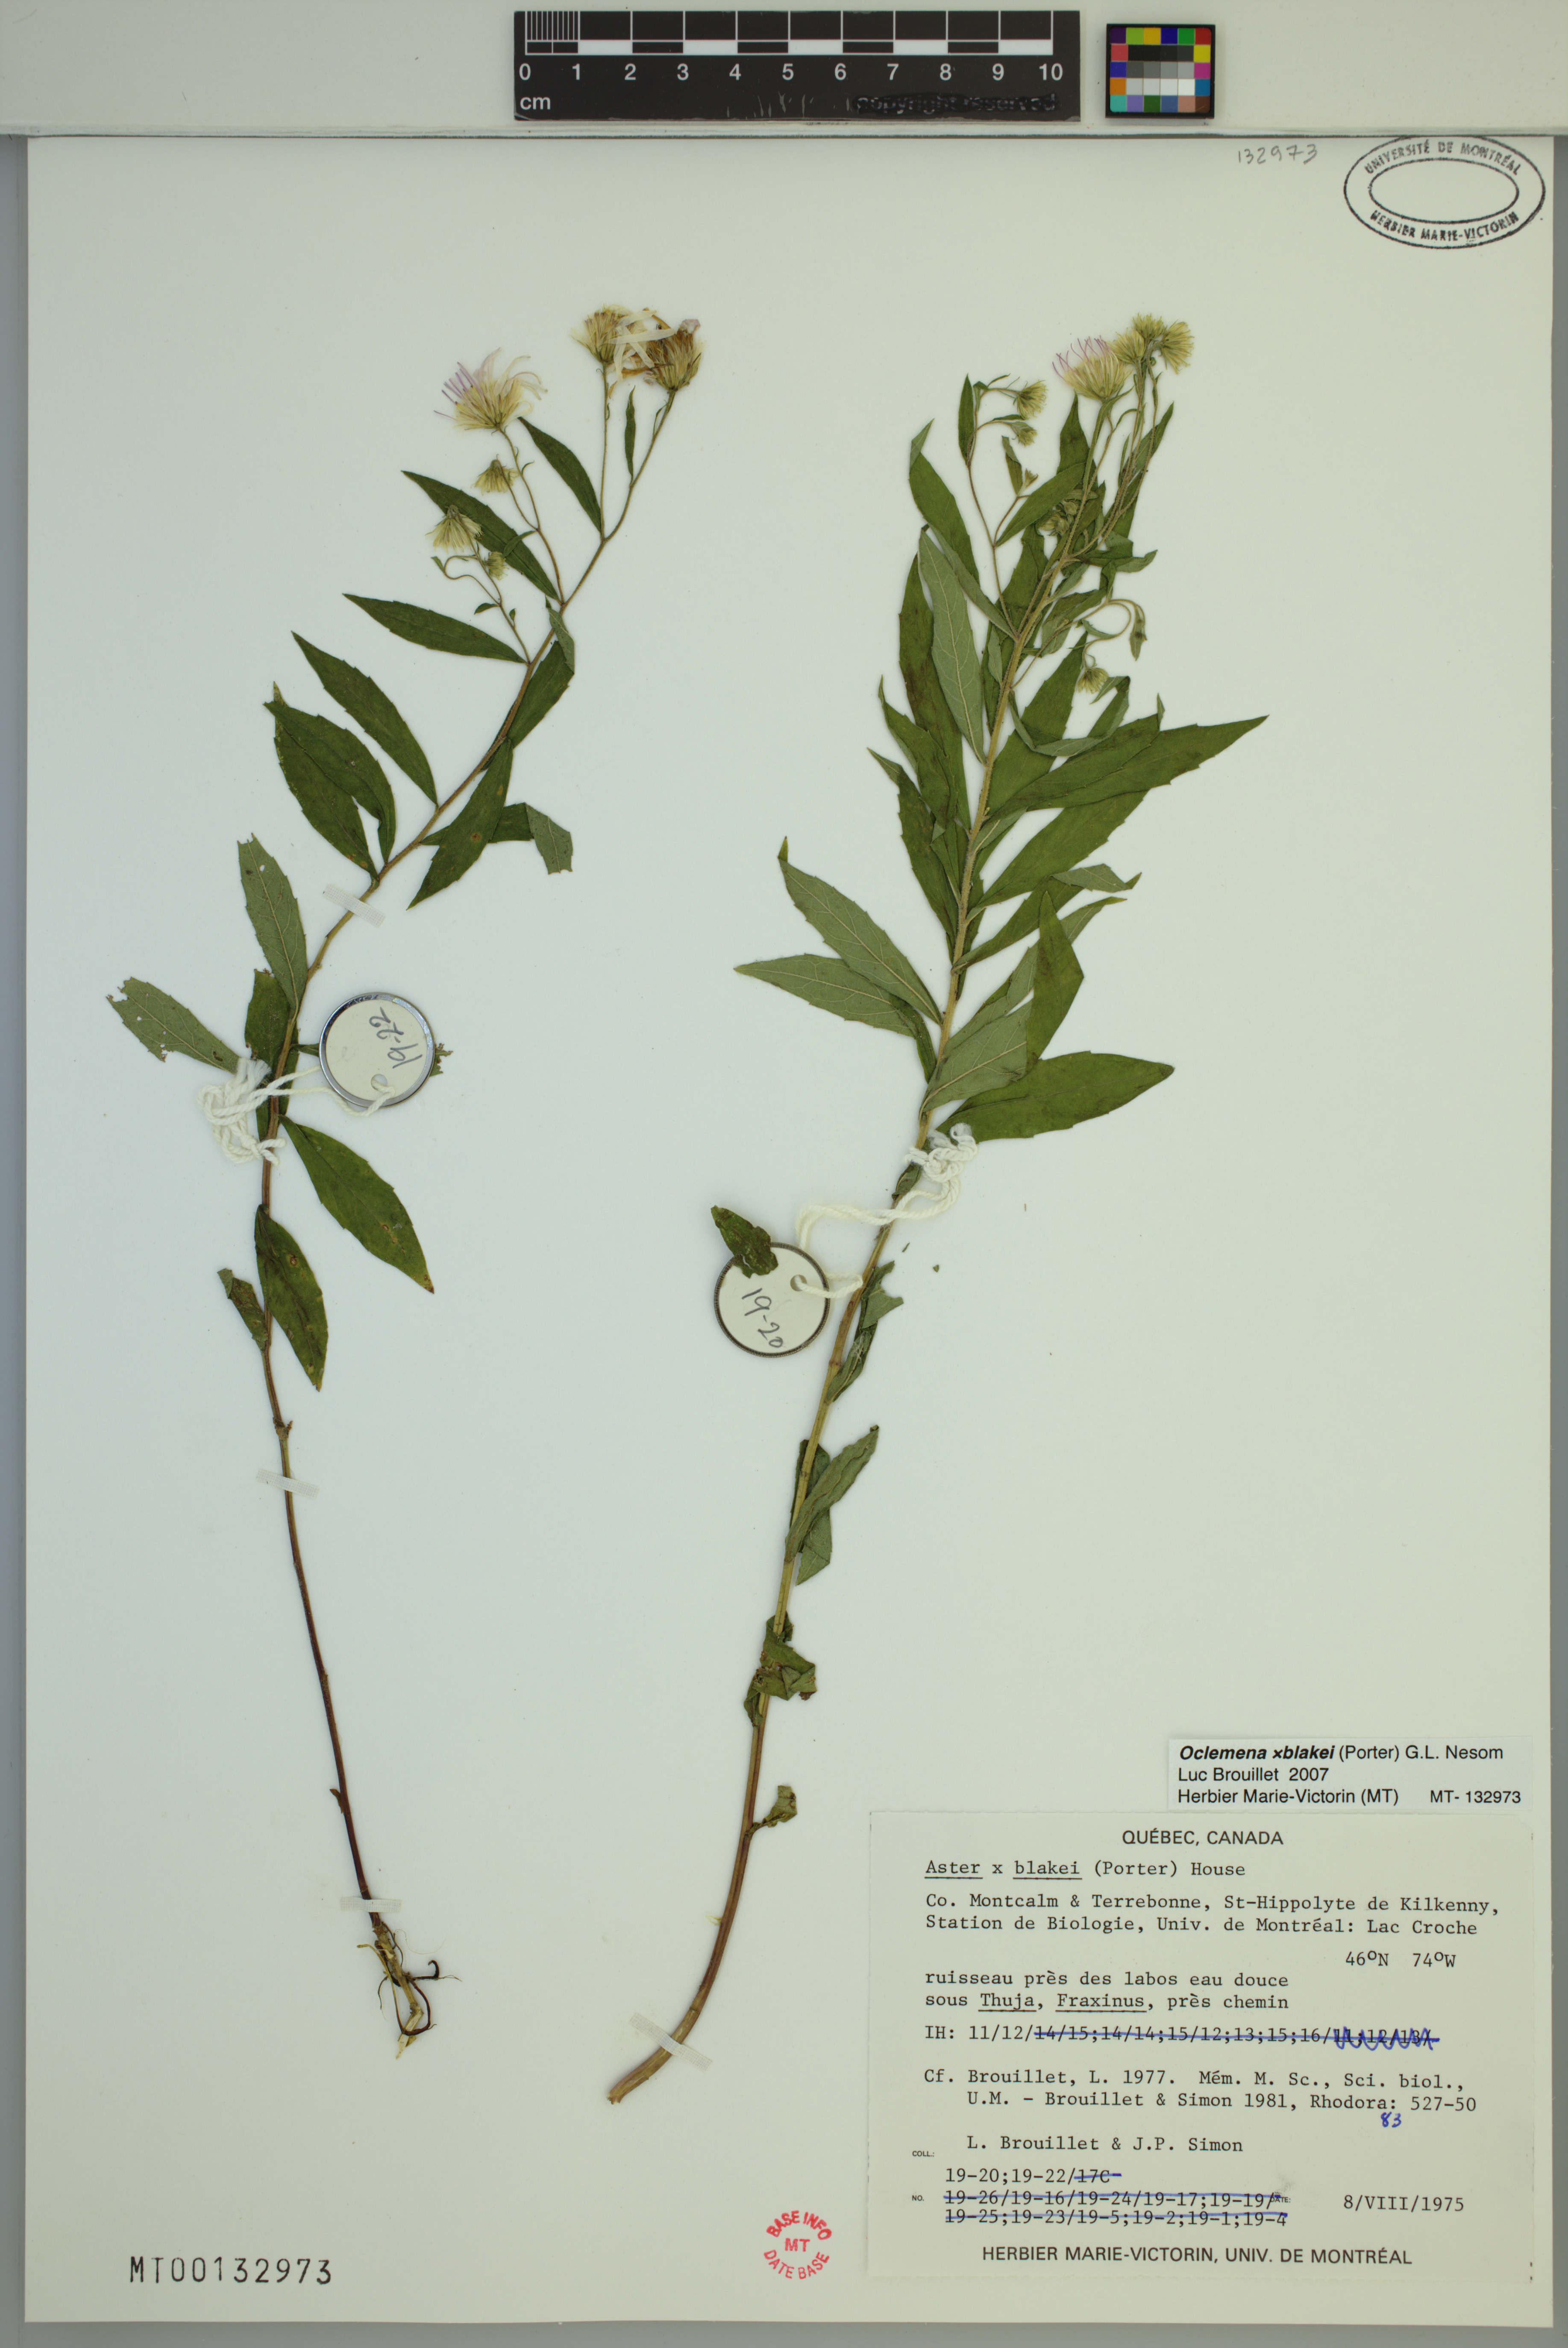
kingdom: Plantae
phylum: Tracheophyta
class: Magnoliopsida
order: Asterales
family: Asteraceae
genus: Oclemena
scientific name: Oclemena blakei
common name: Blake's aster
